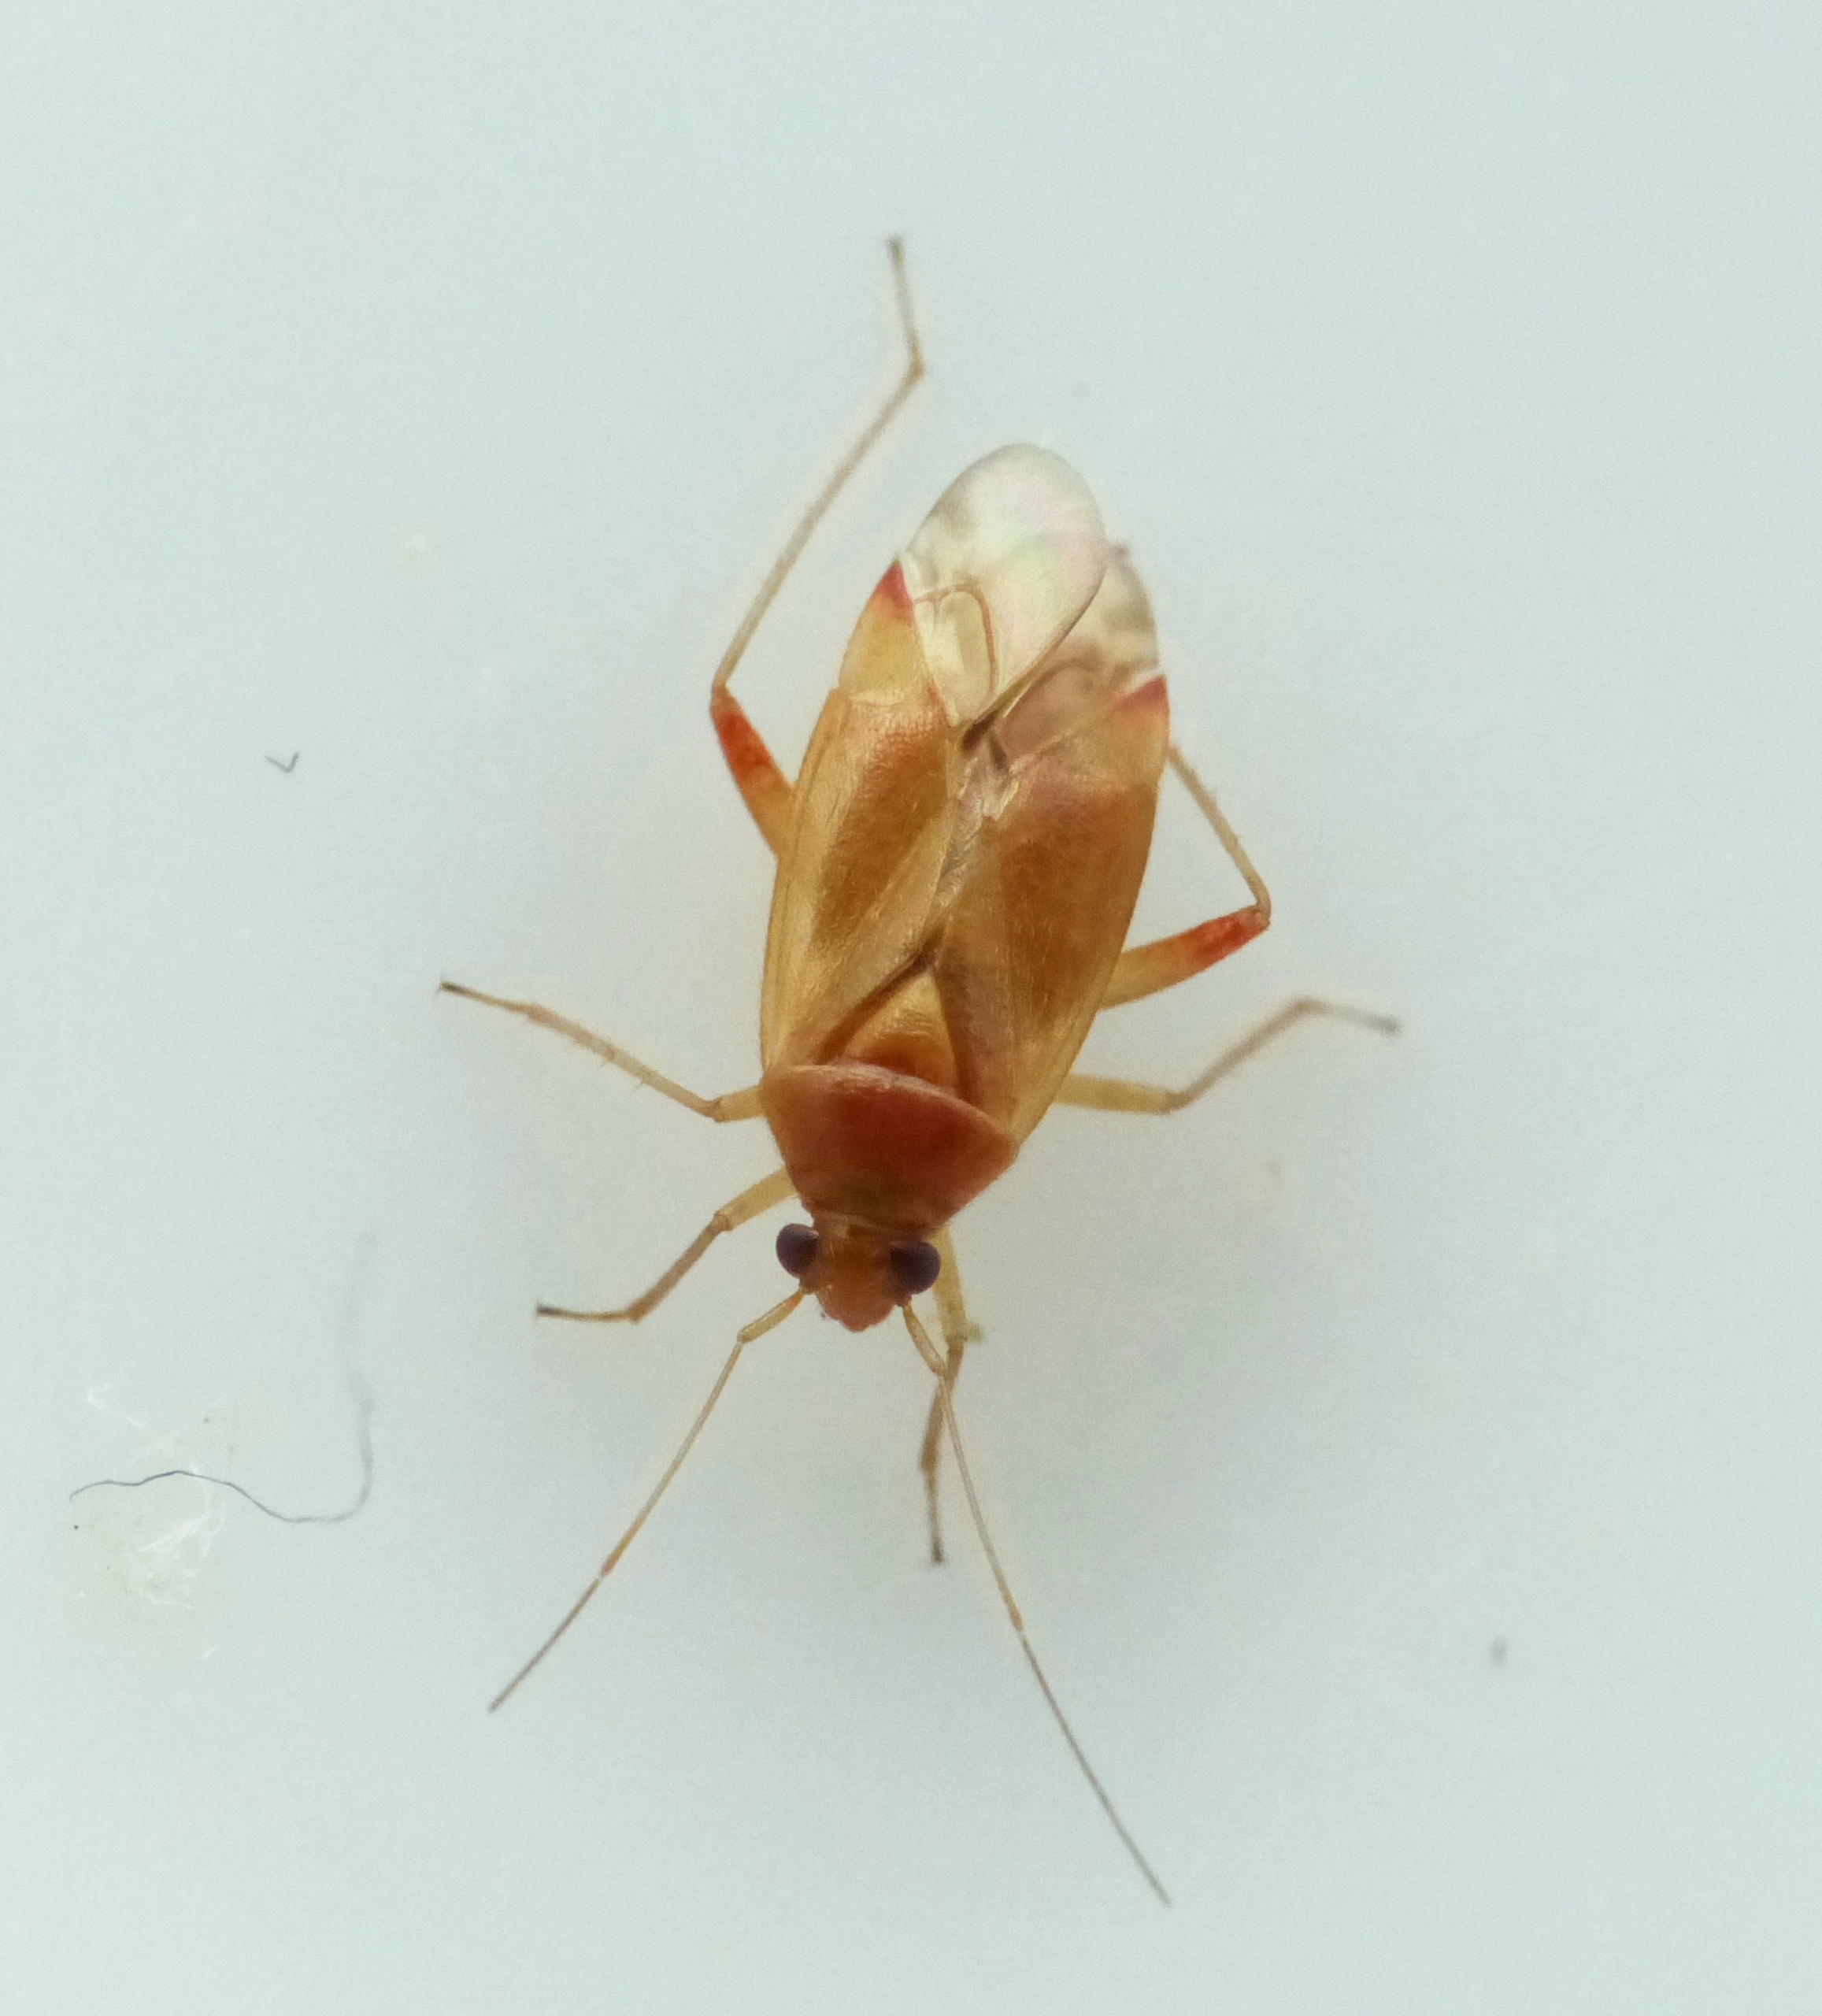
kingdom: Animalia
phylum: Arthropoda
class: Insecta
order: Hemiptera
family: Miridae
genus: Pinalitus
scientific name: Pinalitus rubricatus
